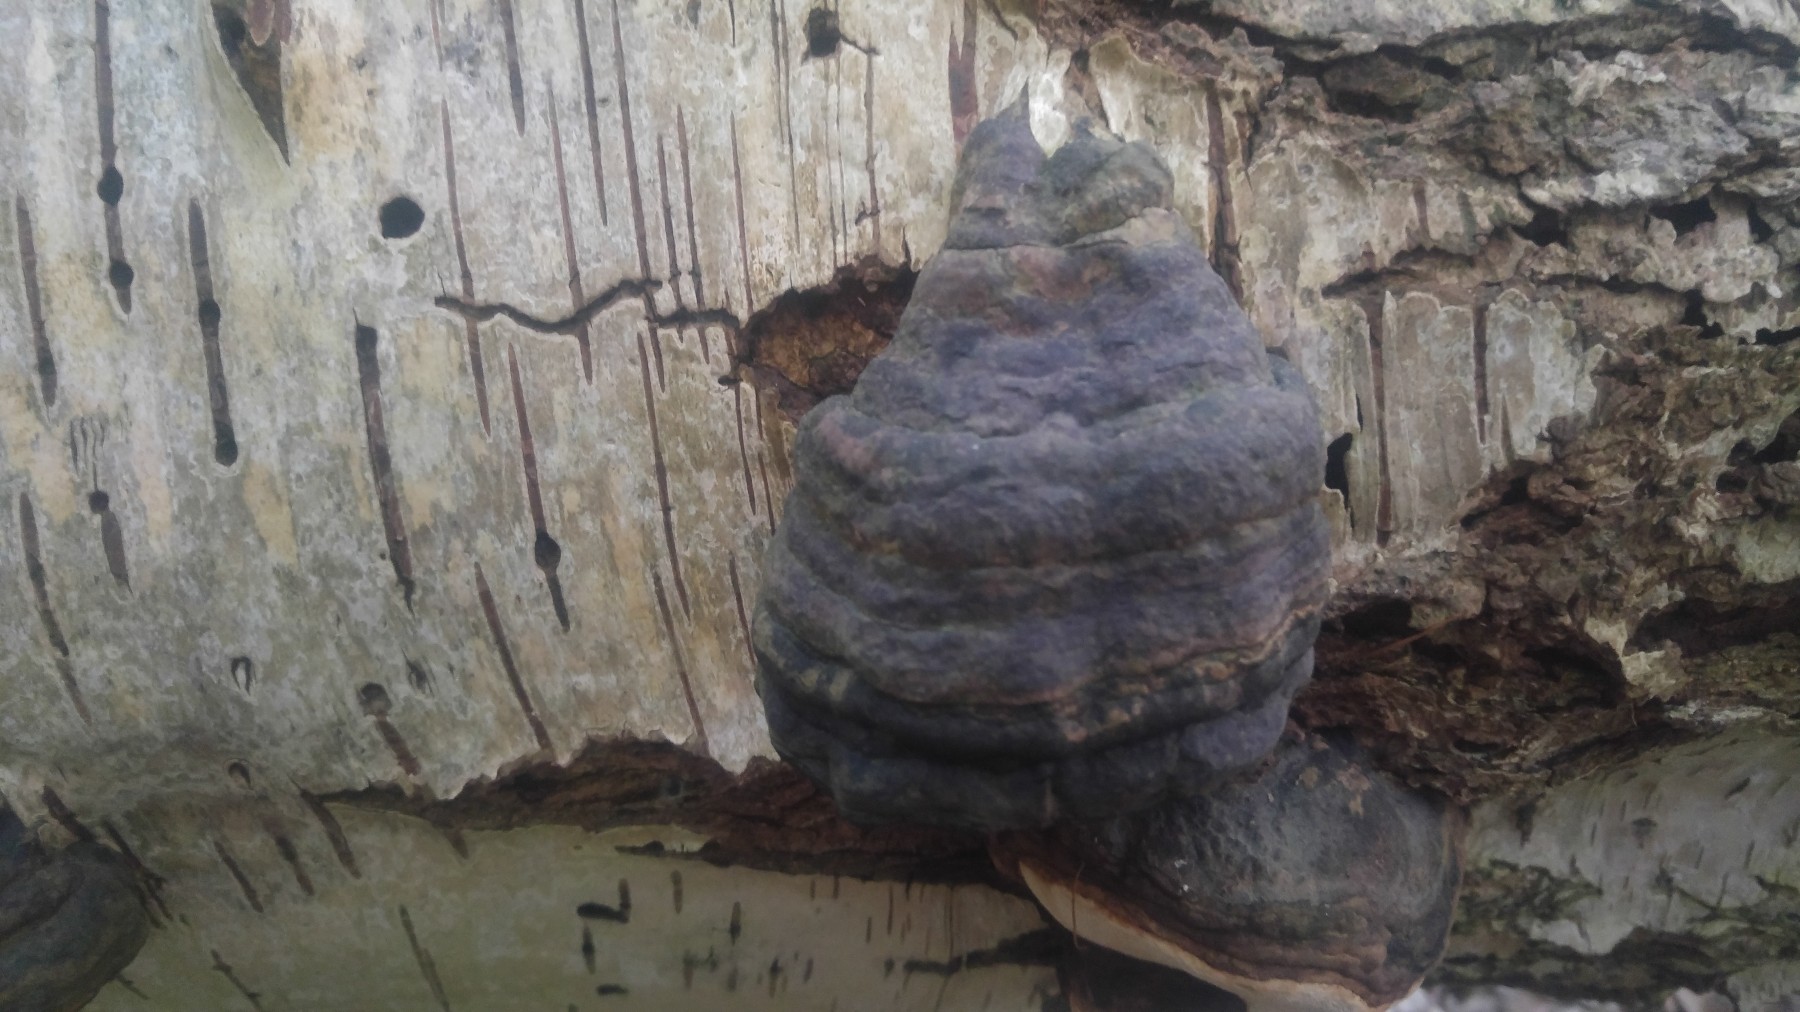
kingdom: Fungi
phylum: Basidiomycota
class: Agaricomycetes
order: Polyporales
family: Polyporaceae
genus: Fomes
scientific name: Fomes fomentarius
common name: tøndersvamp
